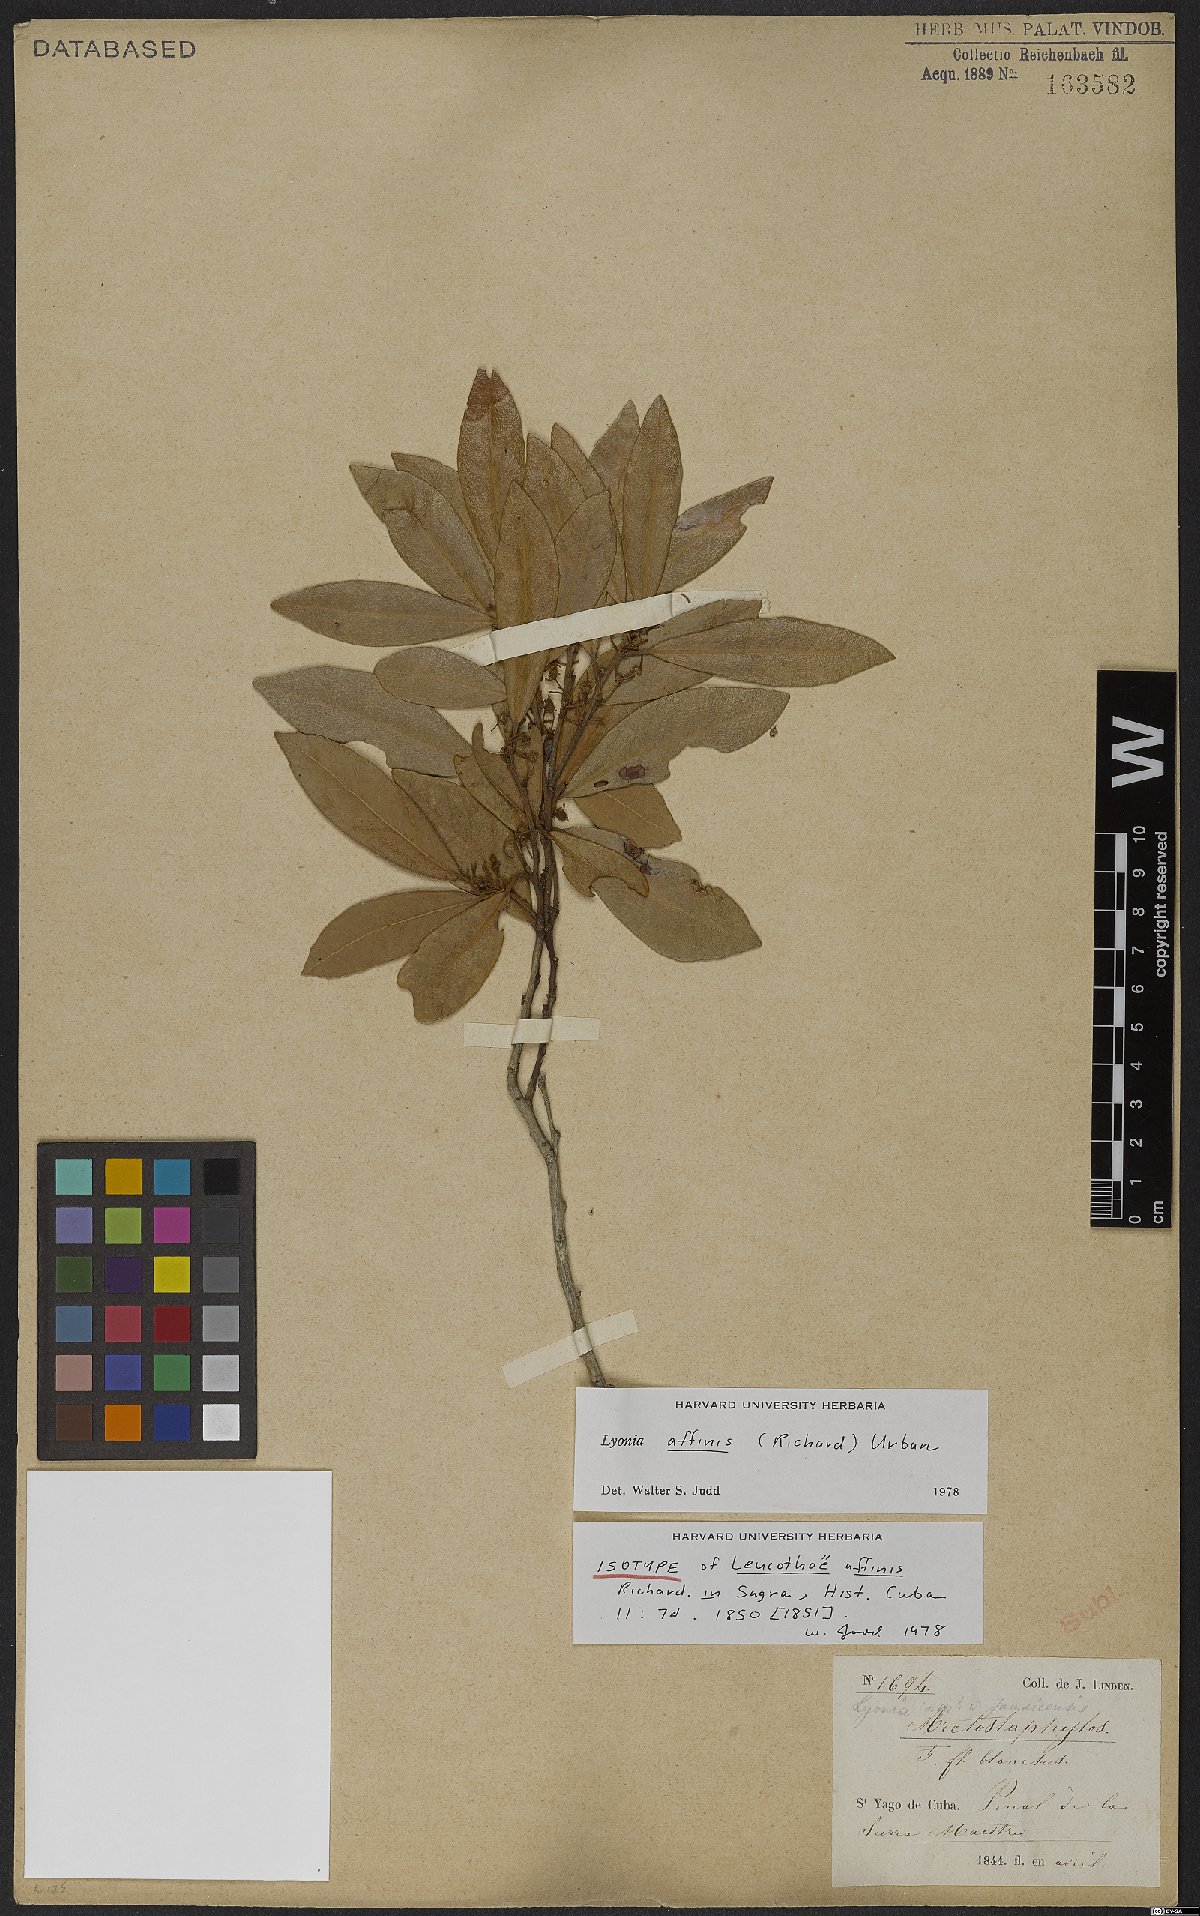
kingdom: Plantae
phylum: Tracheophyta
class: Magnoliopsida
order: Ericales
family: Ericaceae
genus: Lyonia
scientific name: Lyonia affinis
